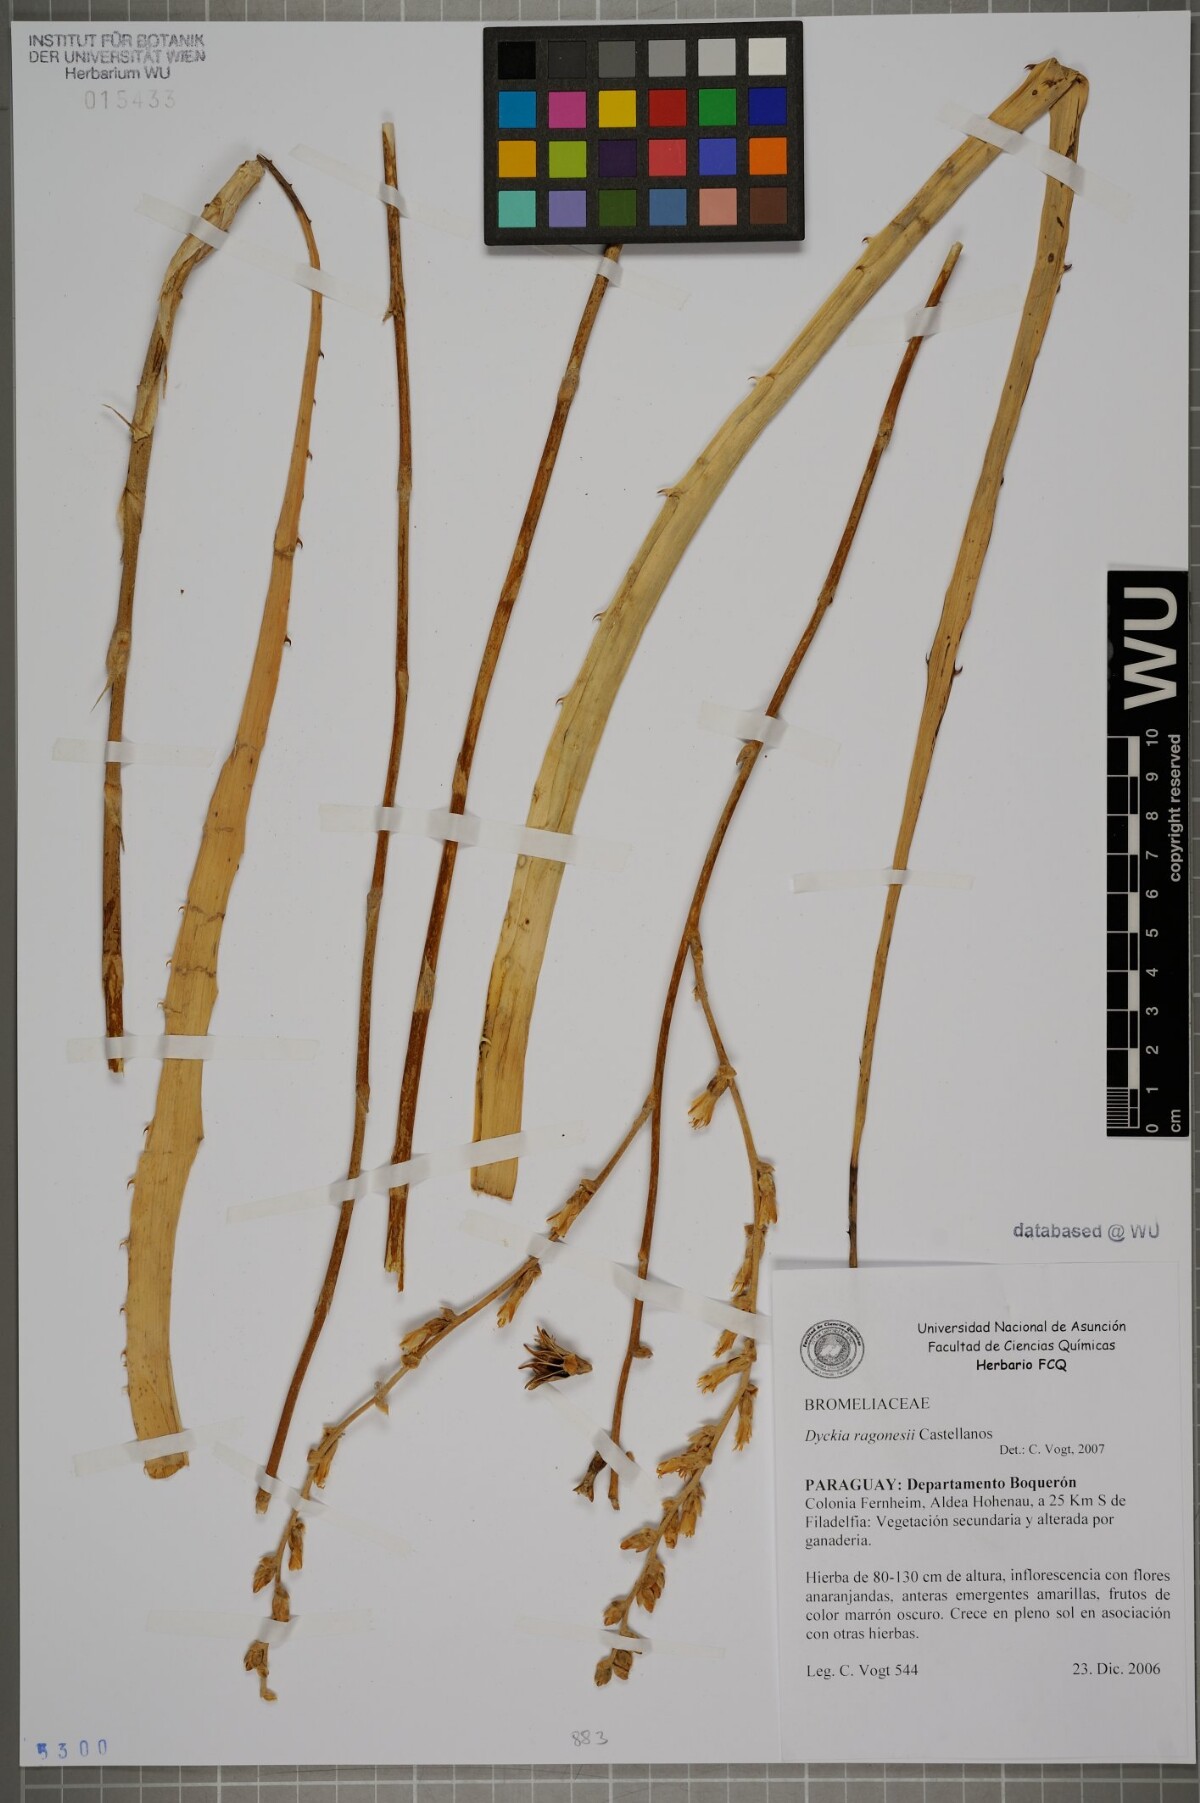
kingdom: Plantae
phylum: Tracheophyta
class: Liliopsida
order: Poales
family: Bromeliaceae
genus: Dyckia
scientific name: Dyckia ragonesei
